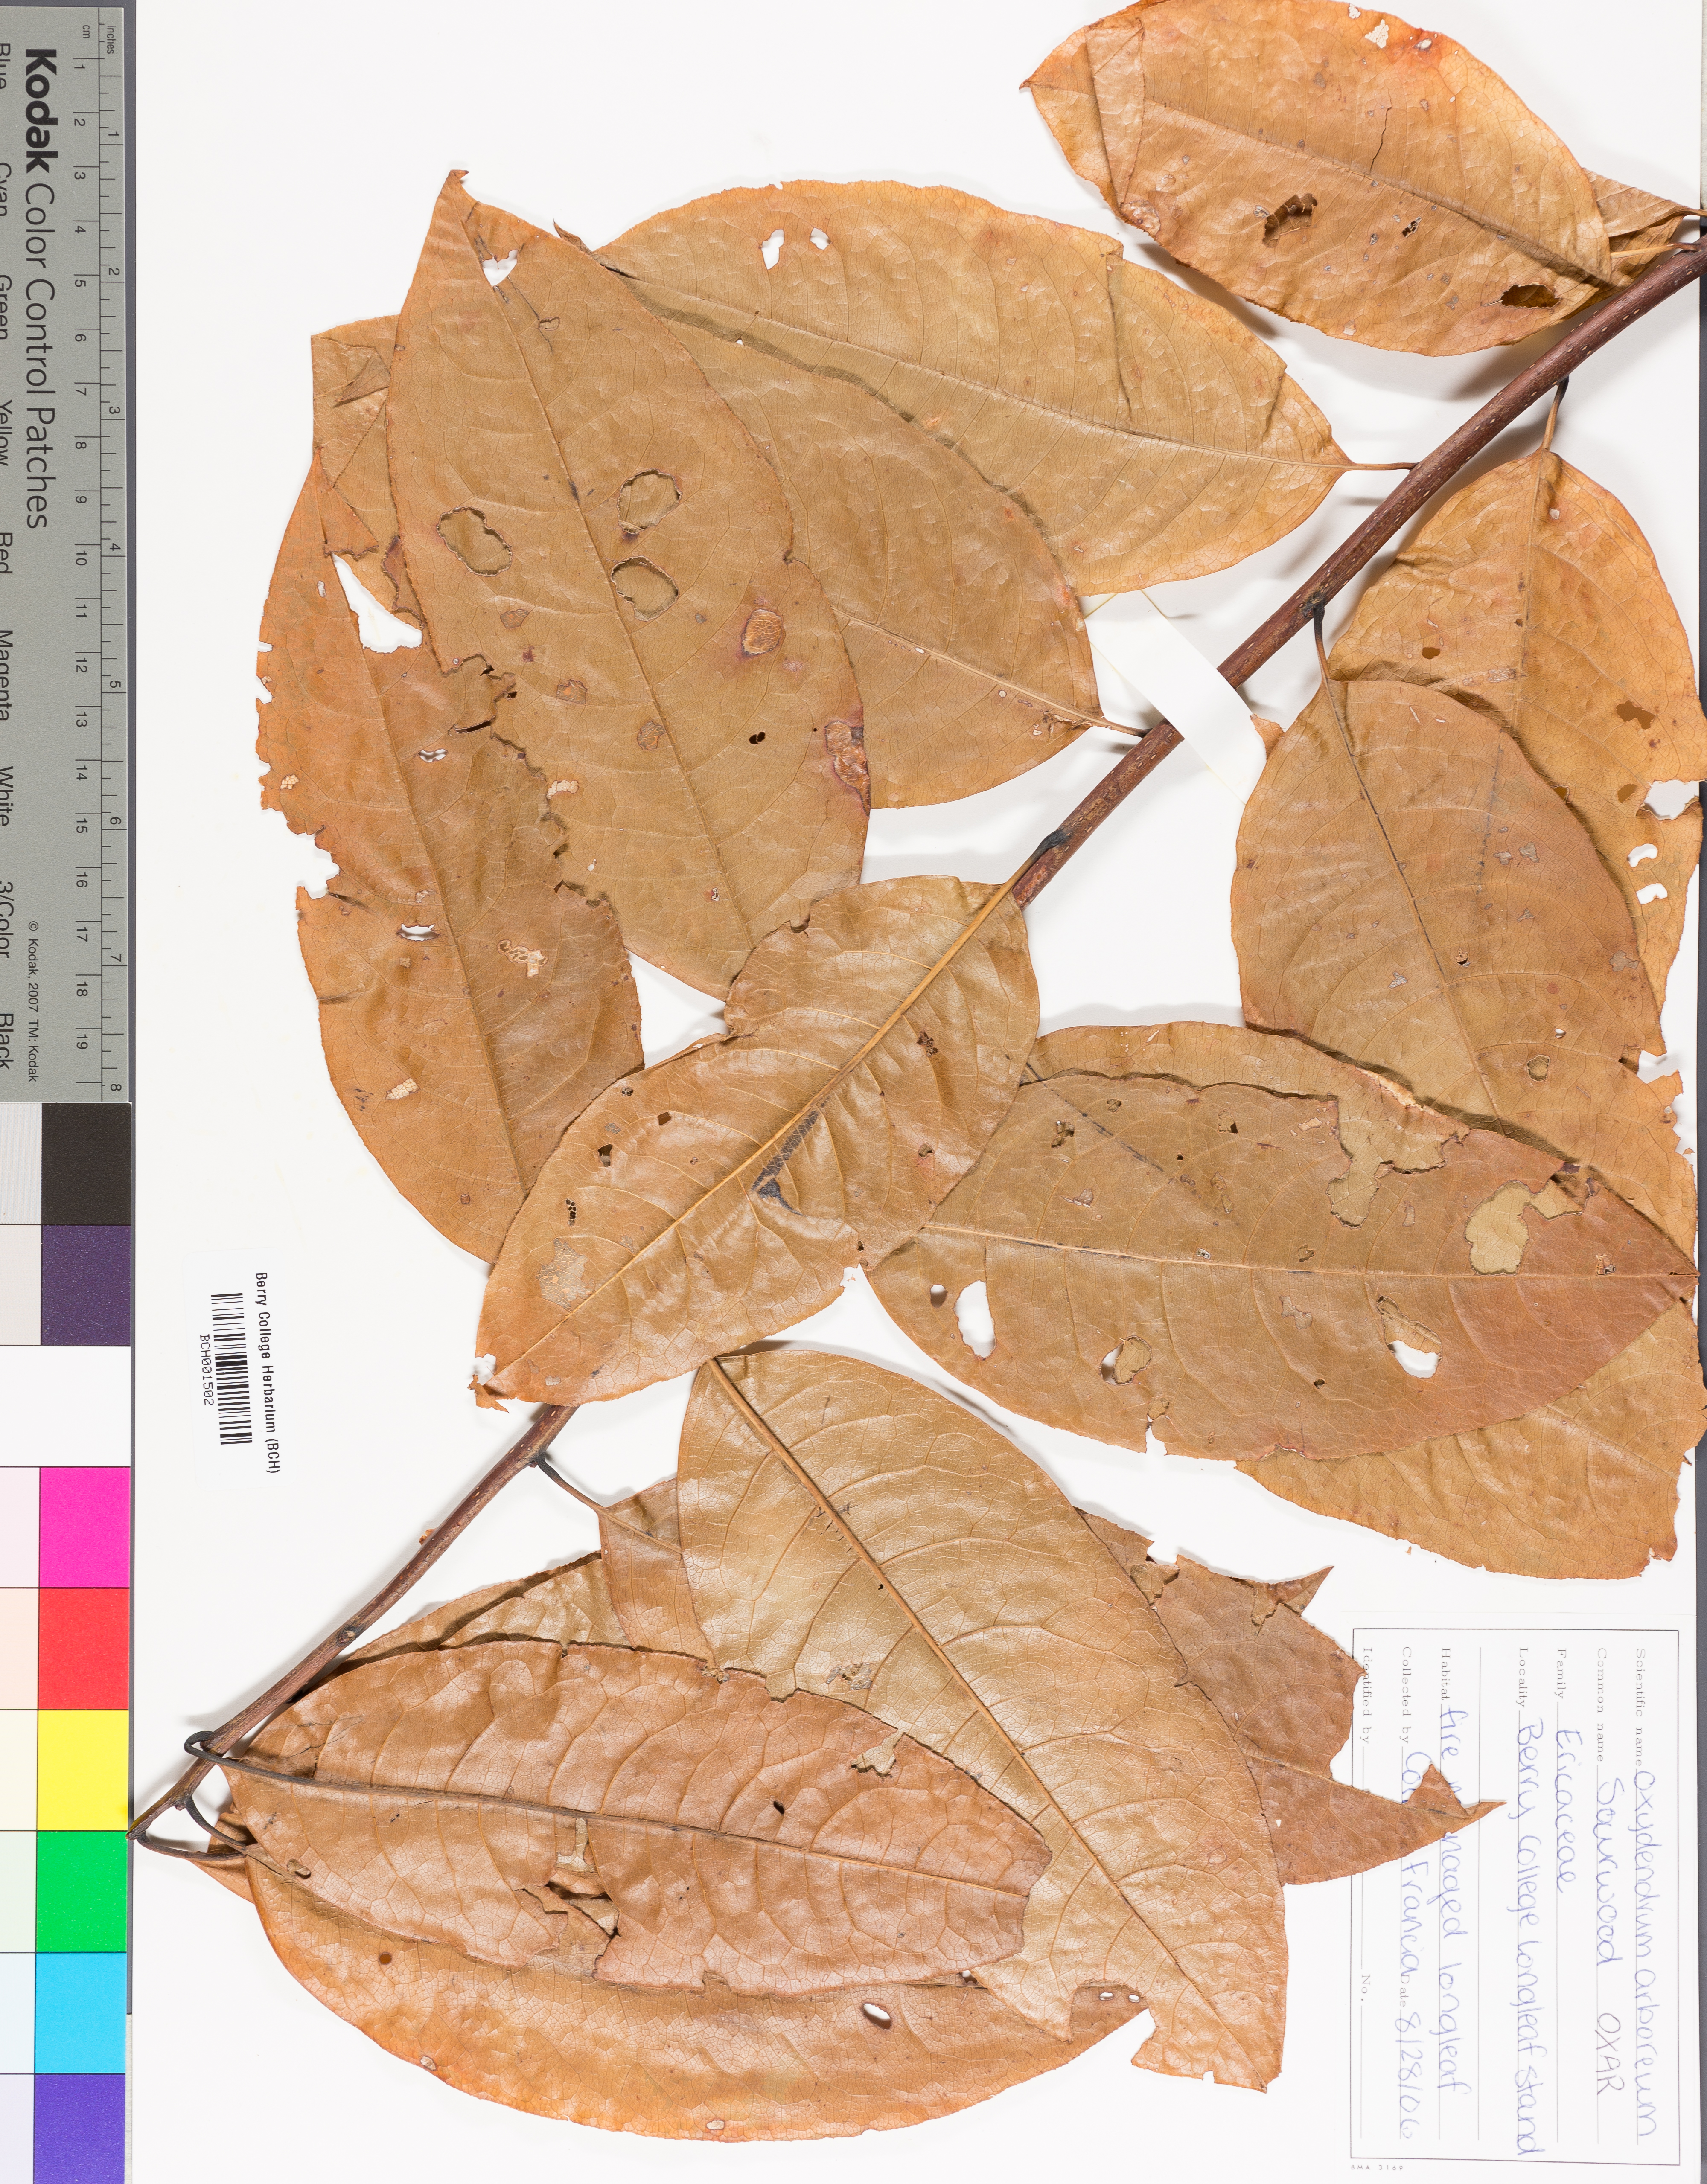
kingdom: Plantae
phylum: Tracheophyta
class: Magnoliopsida
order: Ericales
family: Ericaceae
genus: Rhododendron
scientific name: Rhododendron canescens
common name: Mountain azalea
